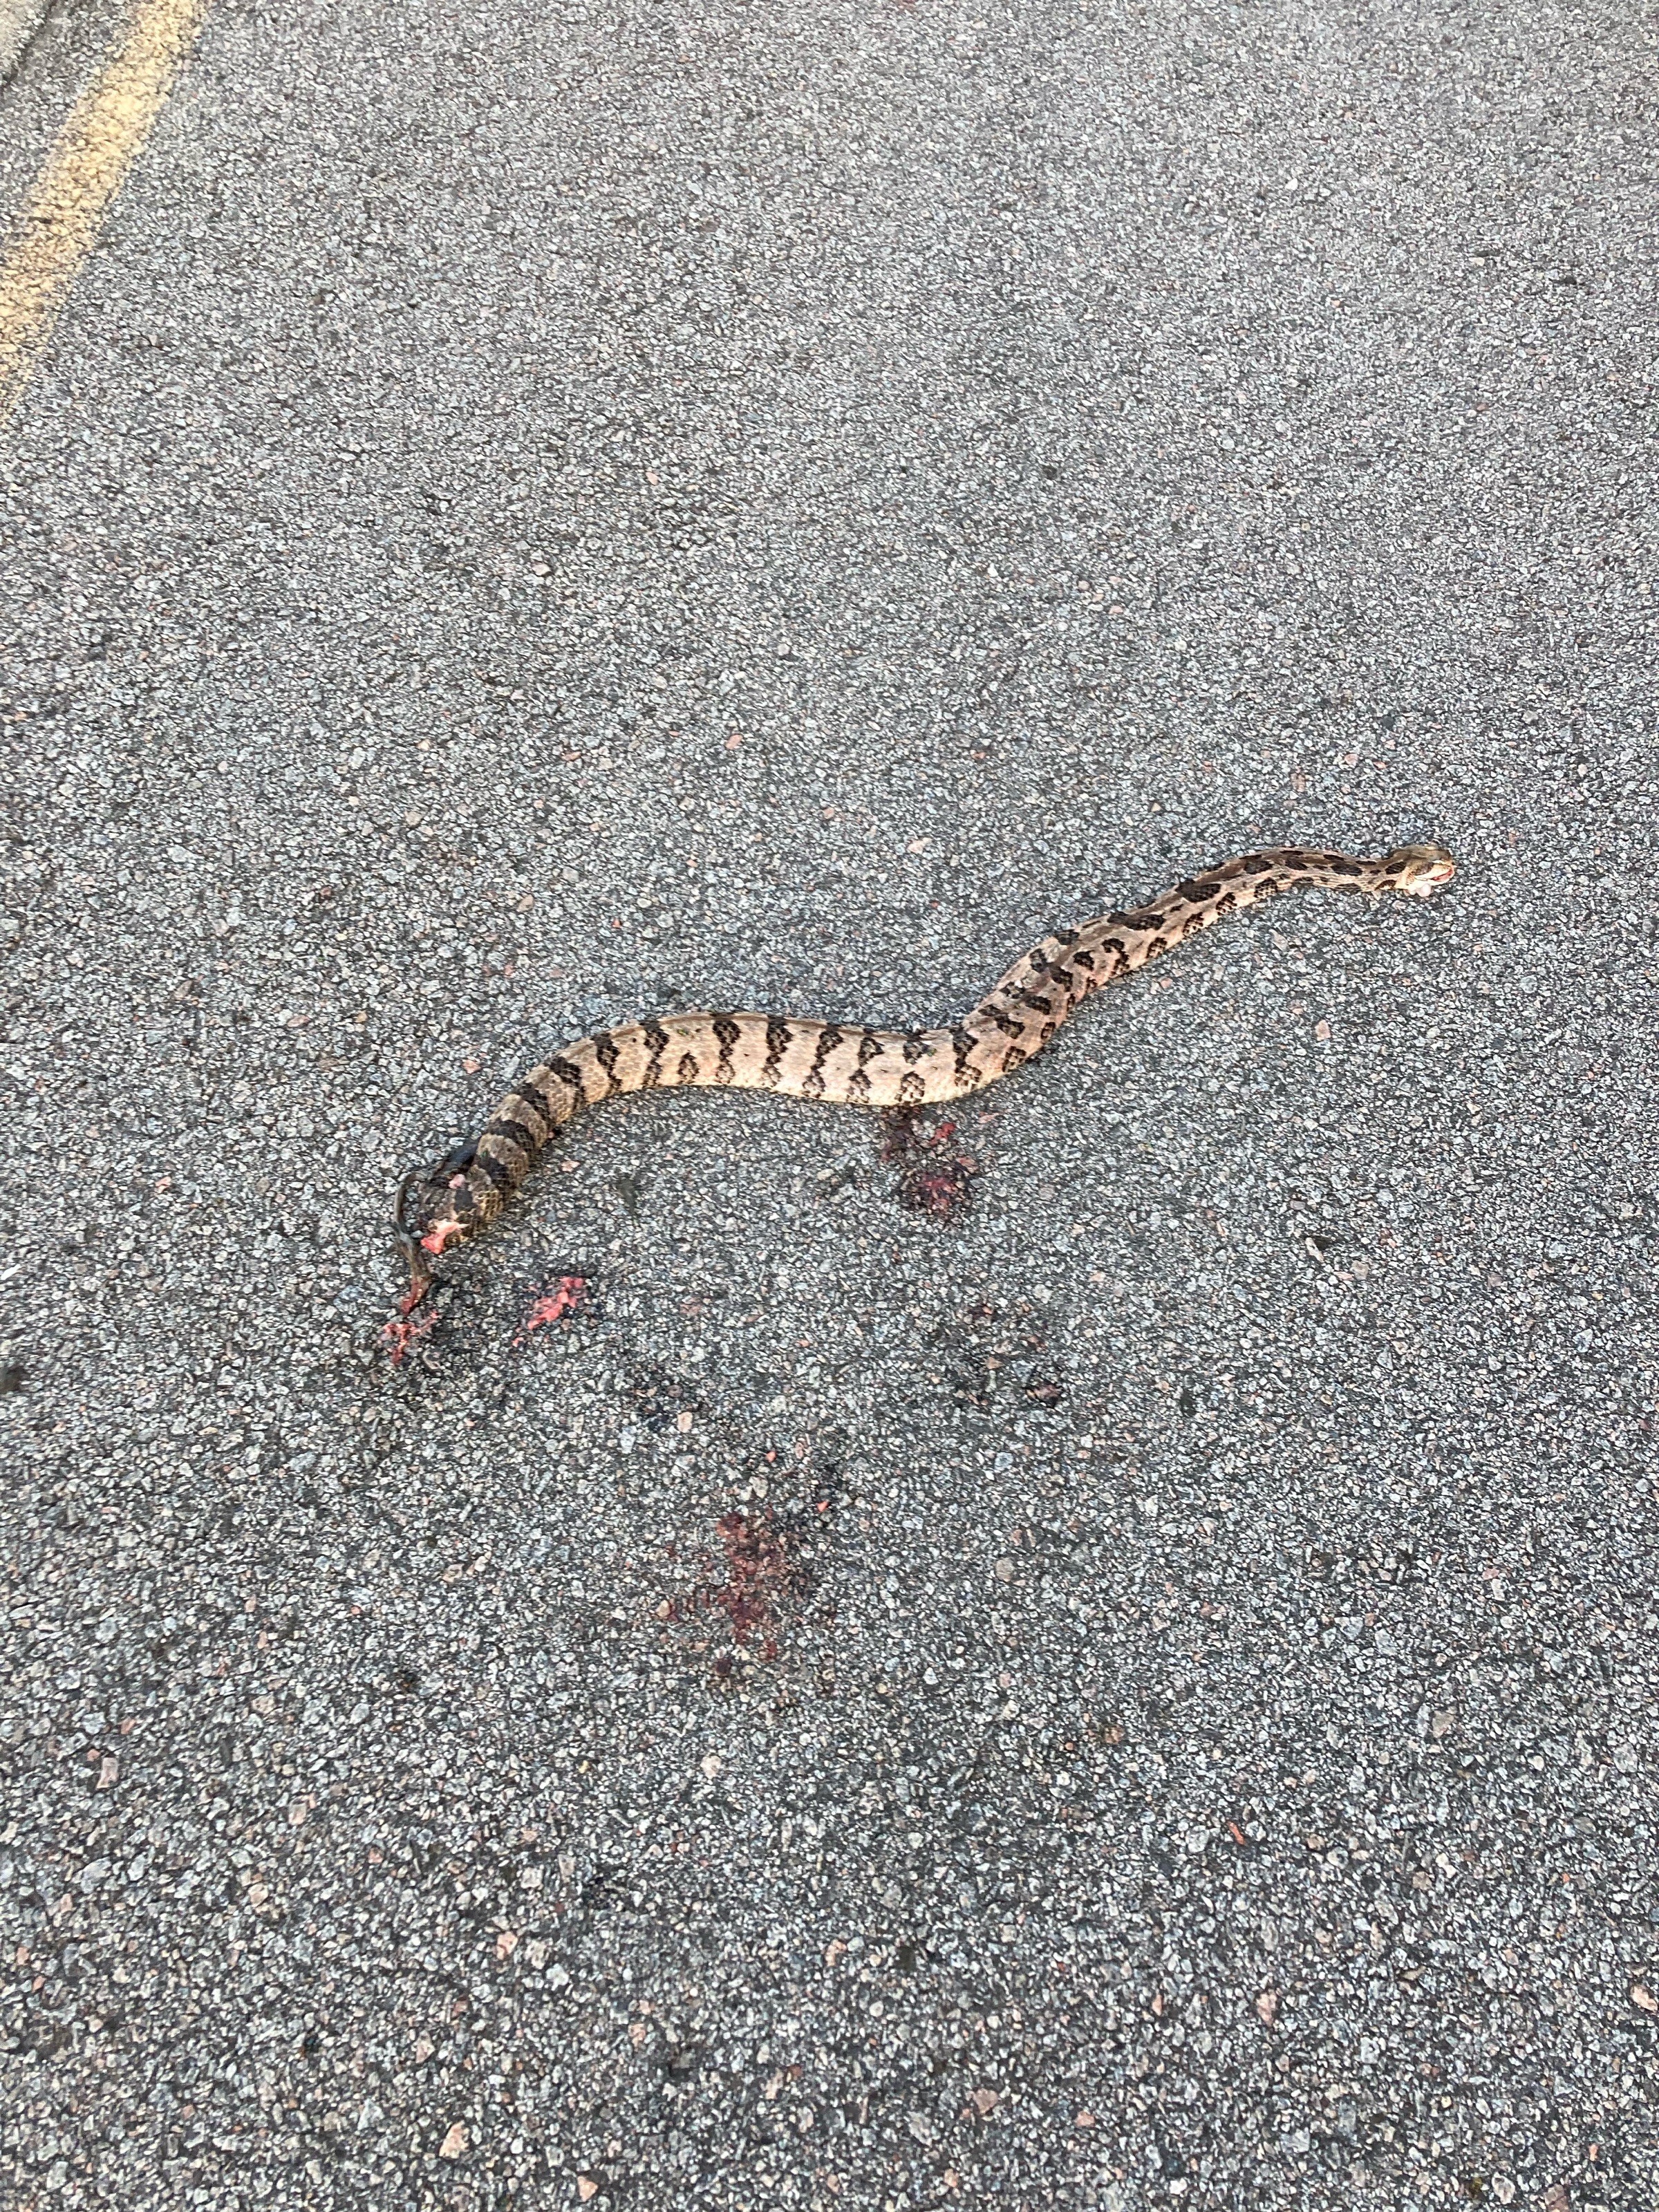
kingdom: Animalia
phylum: Chordata
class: Squamata
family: Viperidae
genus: Crotalus
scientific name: Crotalus horridus
